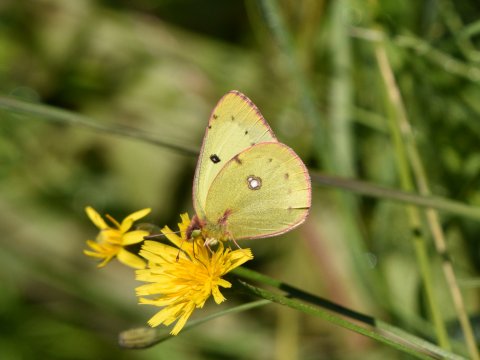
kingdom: Animalia
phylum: Arthropoda
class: Insecta
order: Lepidoptera
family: Pieridae
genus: Colias
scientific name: Colias philodice
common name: Clouded Sulphur
